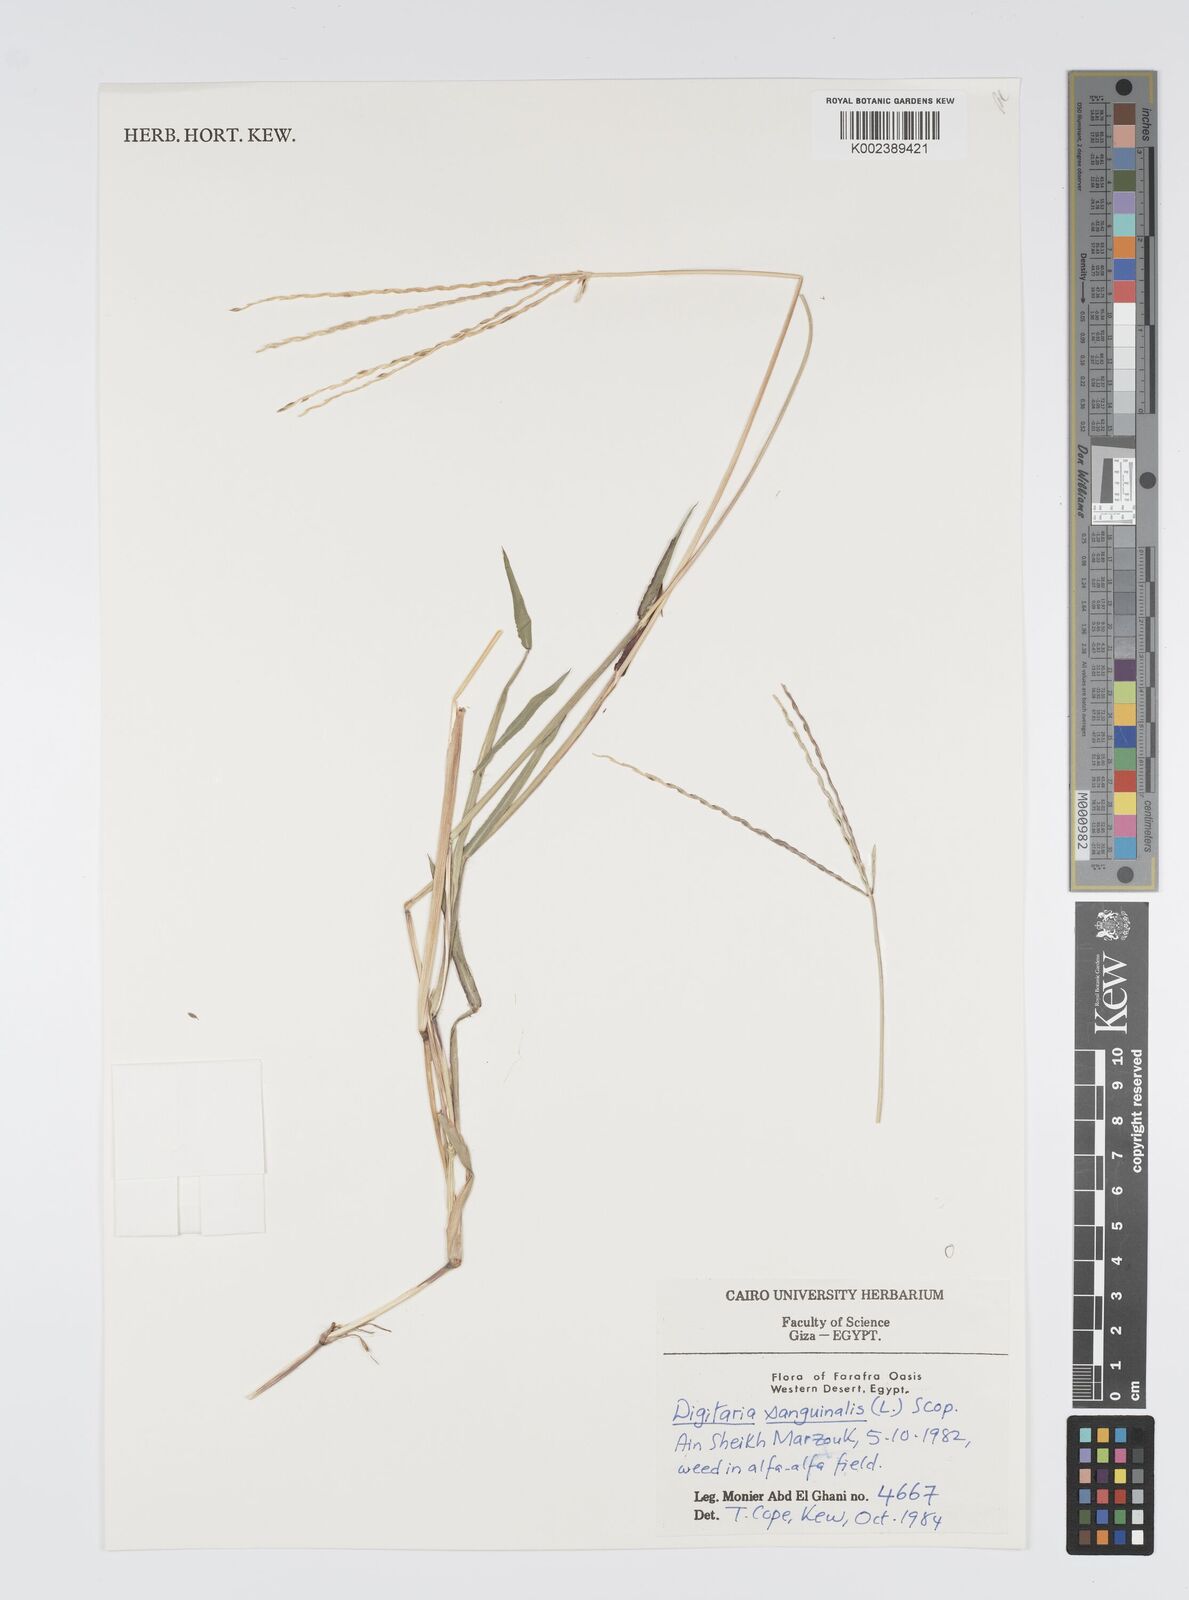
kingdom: Plantae
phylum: Tracheophyta
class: Liliopsida
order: Poales
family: Poaceae
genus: Digitaria
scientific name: Digitaria sanguinalis
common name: Hairy crabgrass
